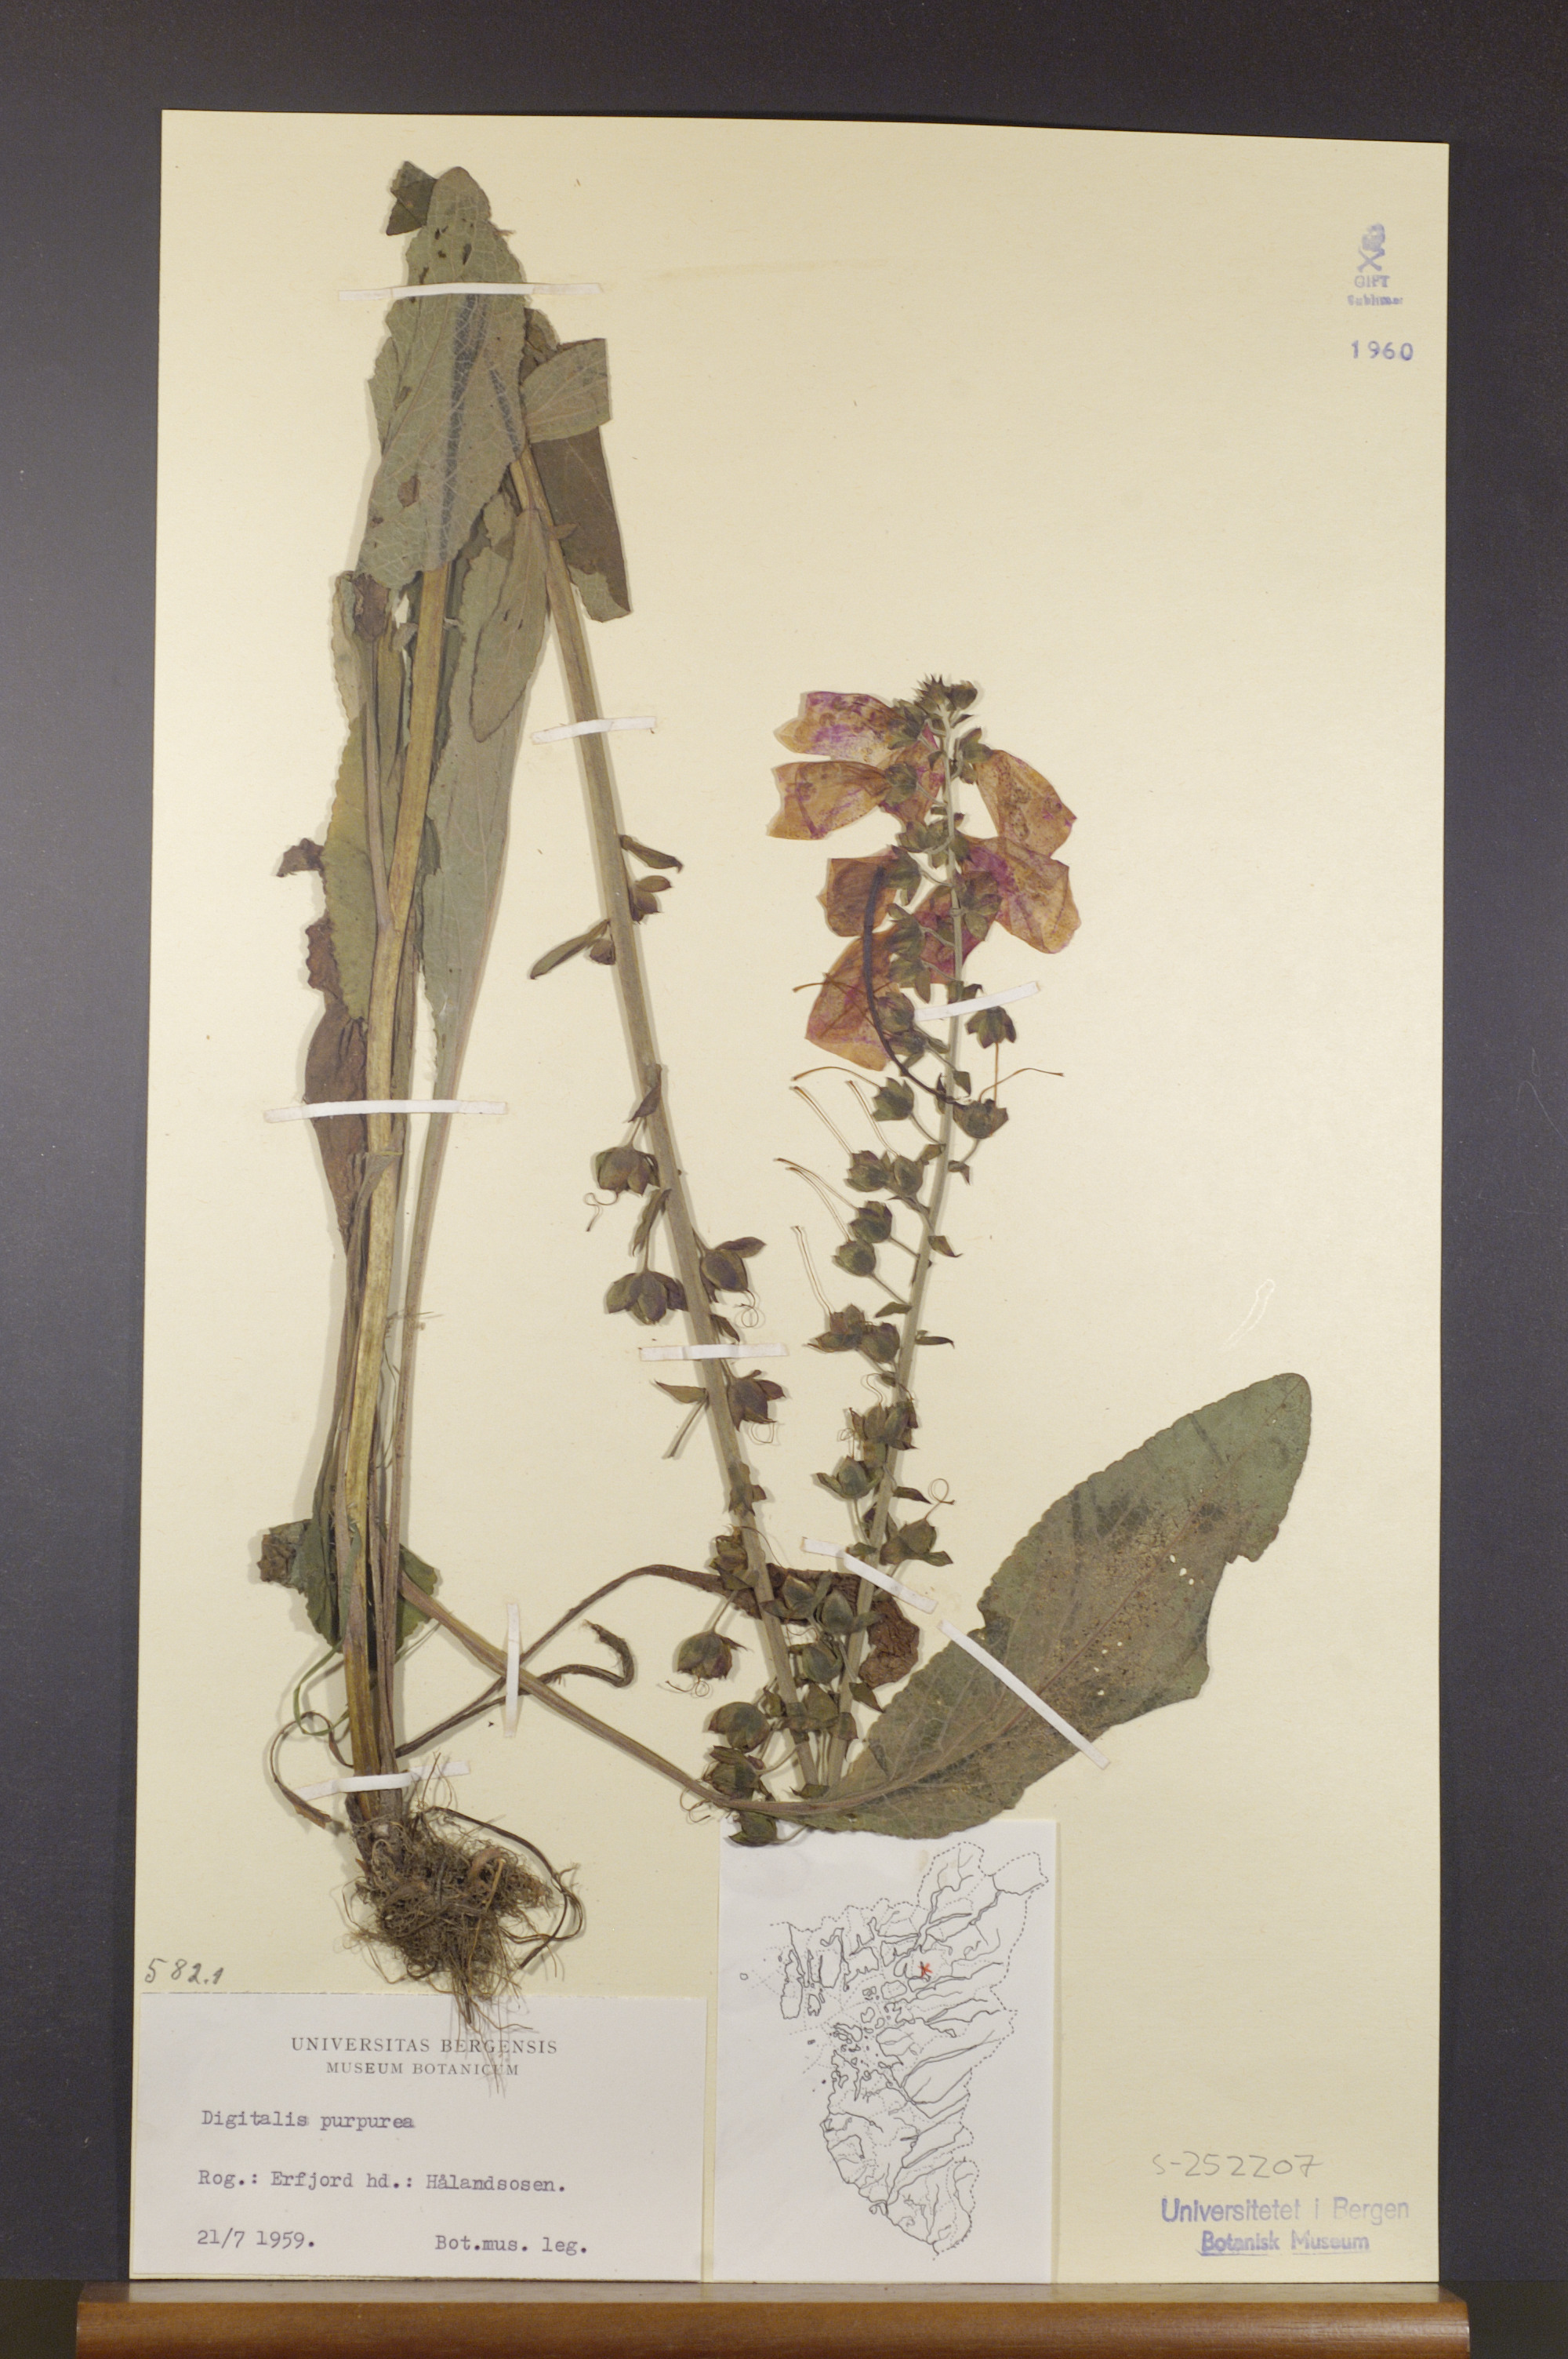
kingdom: Plantae
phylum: Tracheophyta
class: Magnoliopsida
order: Lamiales
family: Plantaginaceae
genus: Digitalis
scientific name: Digitalis purpurea
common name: Foxglove
